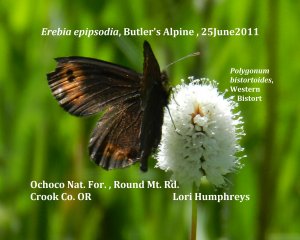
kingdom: Animalia
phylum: Arthropoda
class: Insecta
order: Lepidoptera
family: Nymphalidae
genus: Erebia
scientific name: Erebia epipsodea
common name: Common Alpine
